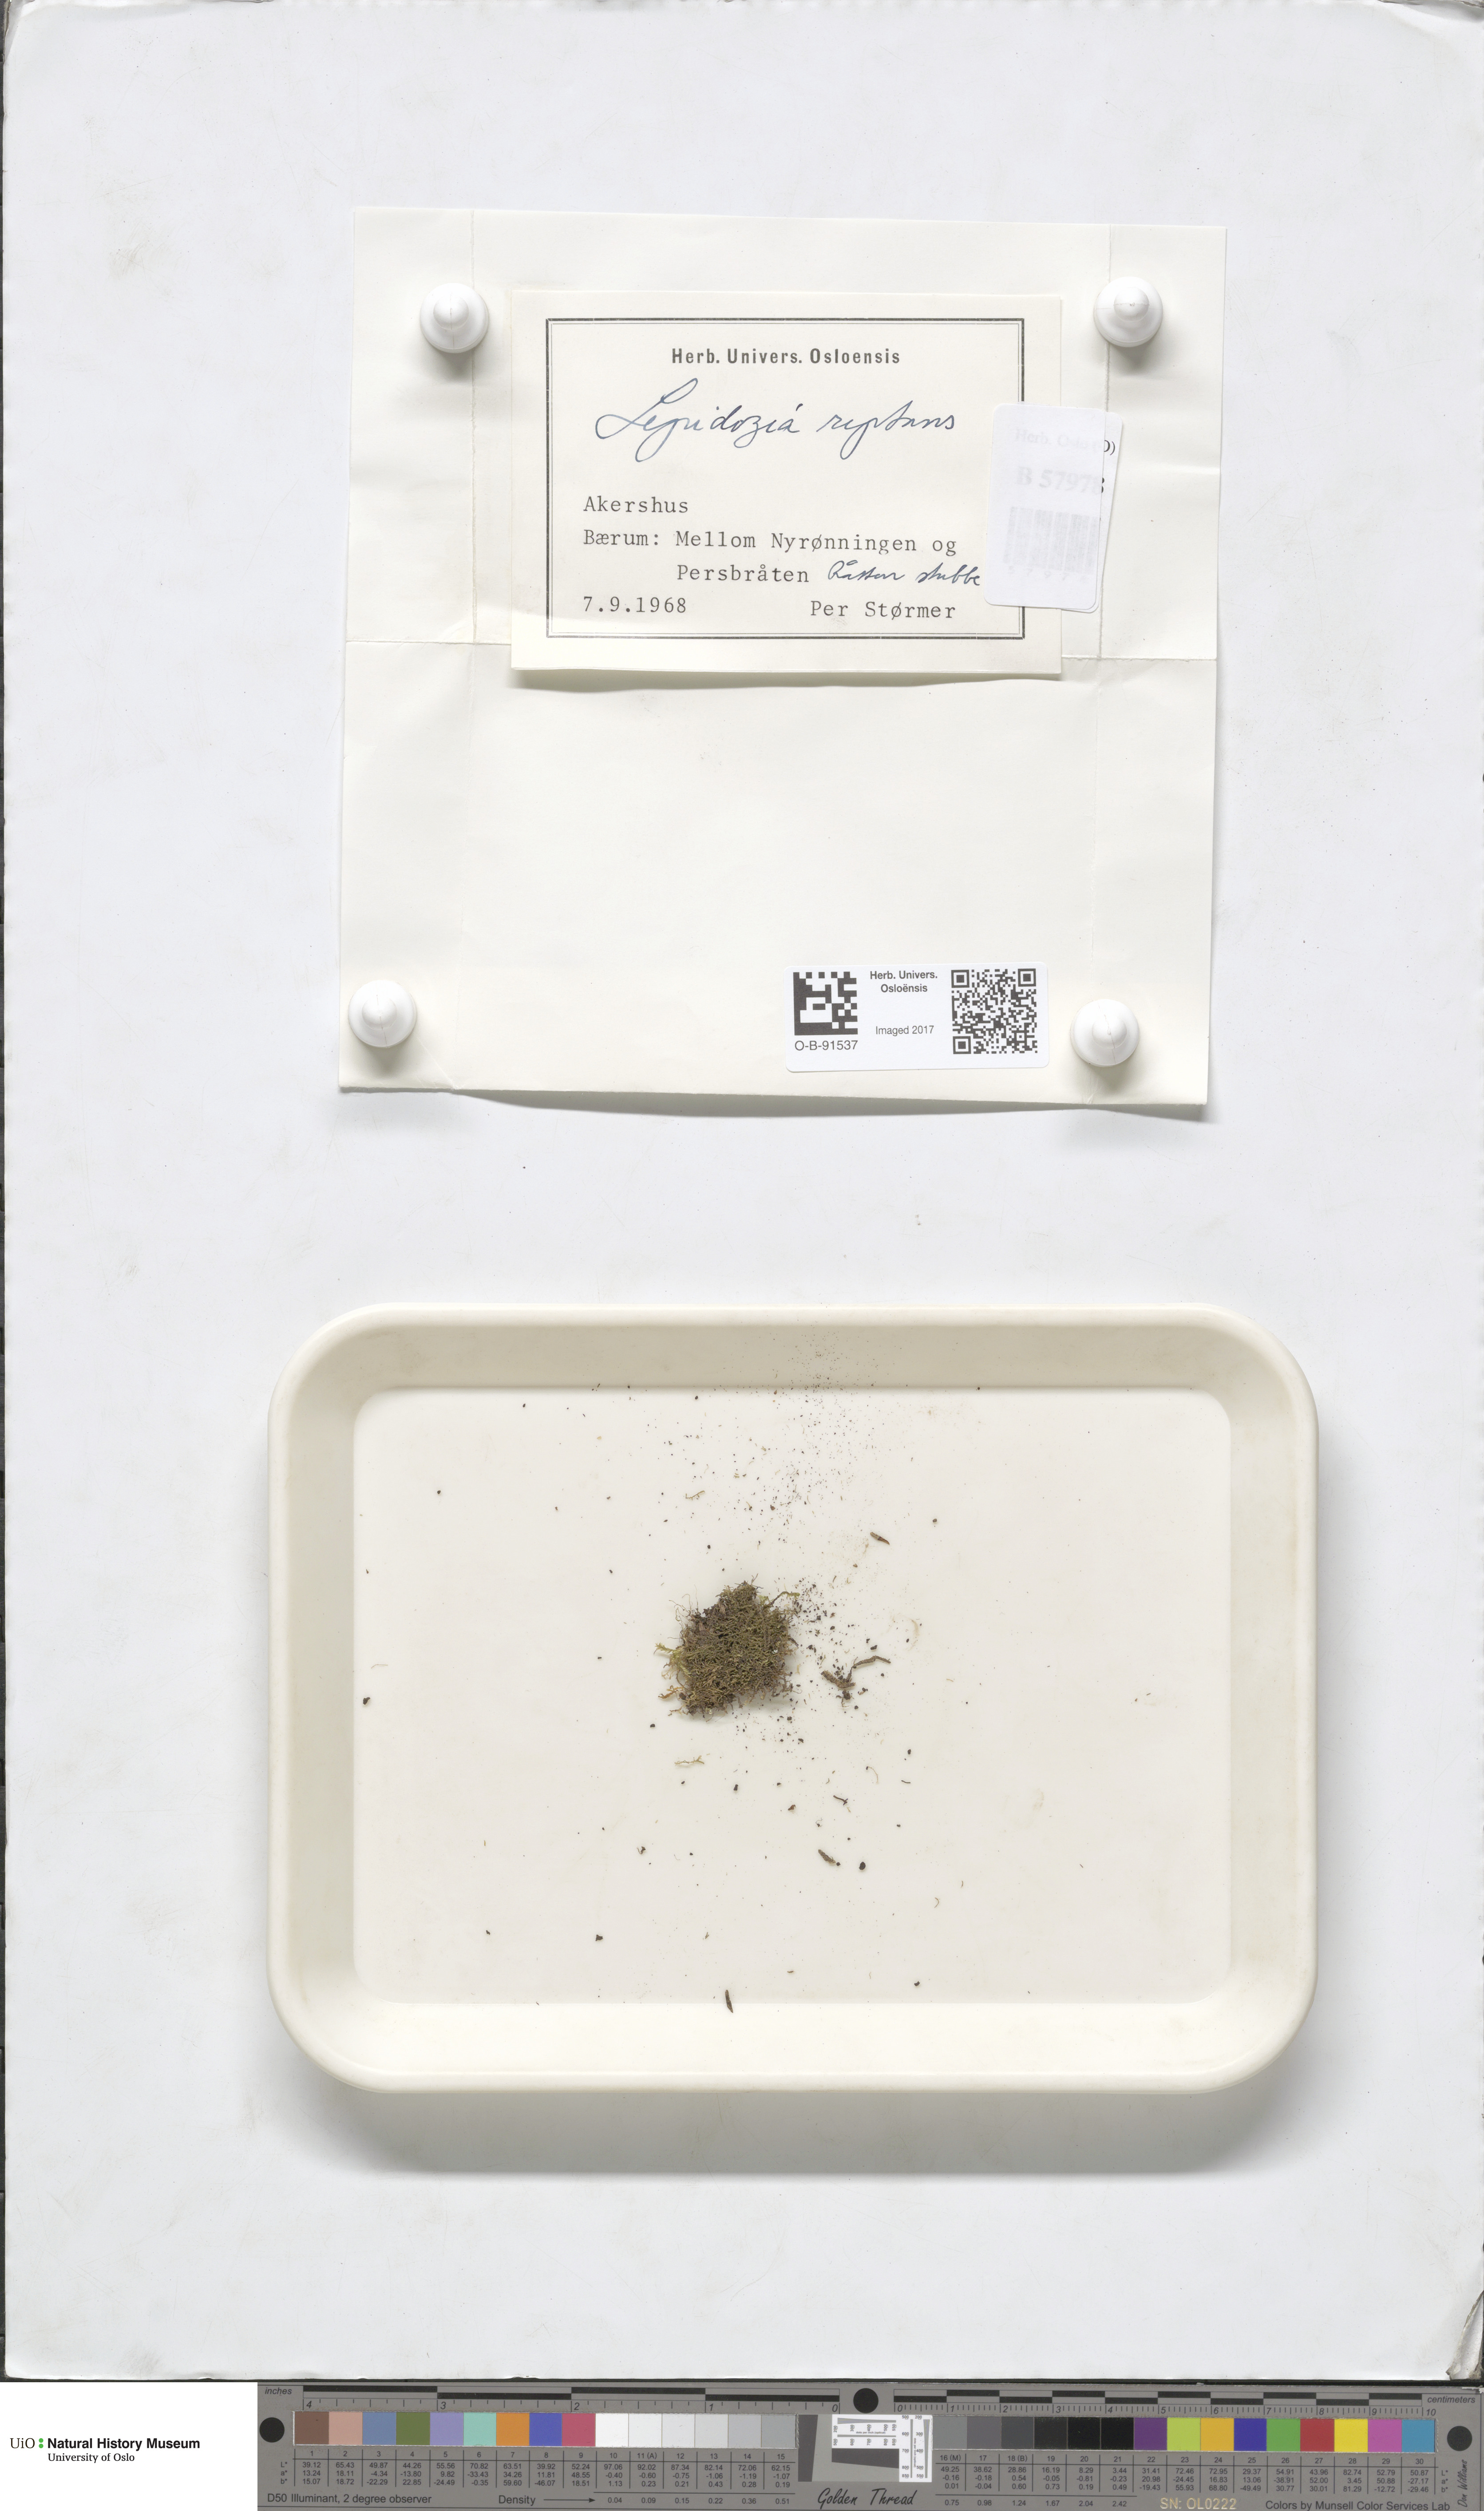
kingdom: Plantae
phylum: Marchantiophyta
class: Jungermanniopsida
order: Jungermanniales
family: Lepidoziaceae
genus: Lepidozia
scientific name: Lepidozia reptans
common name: Creeping fingerwort
